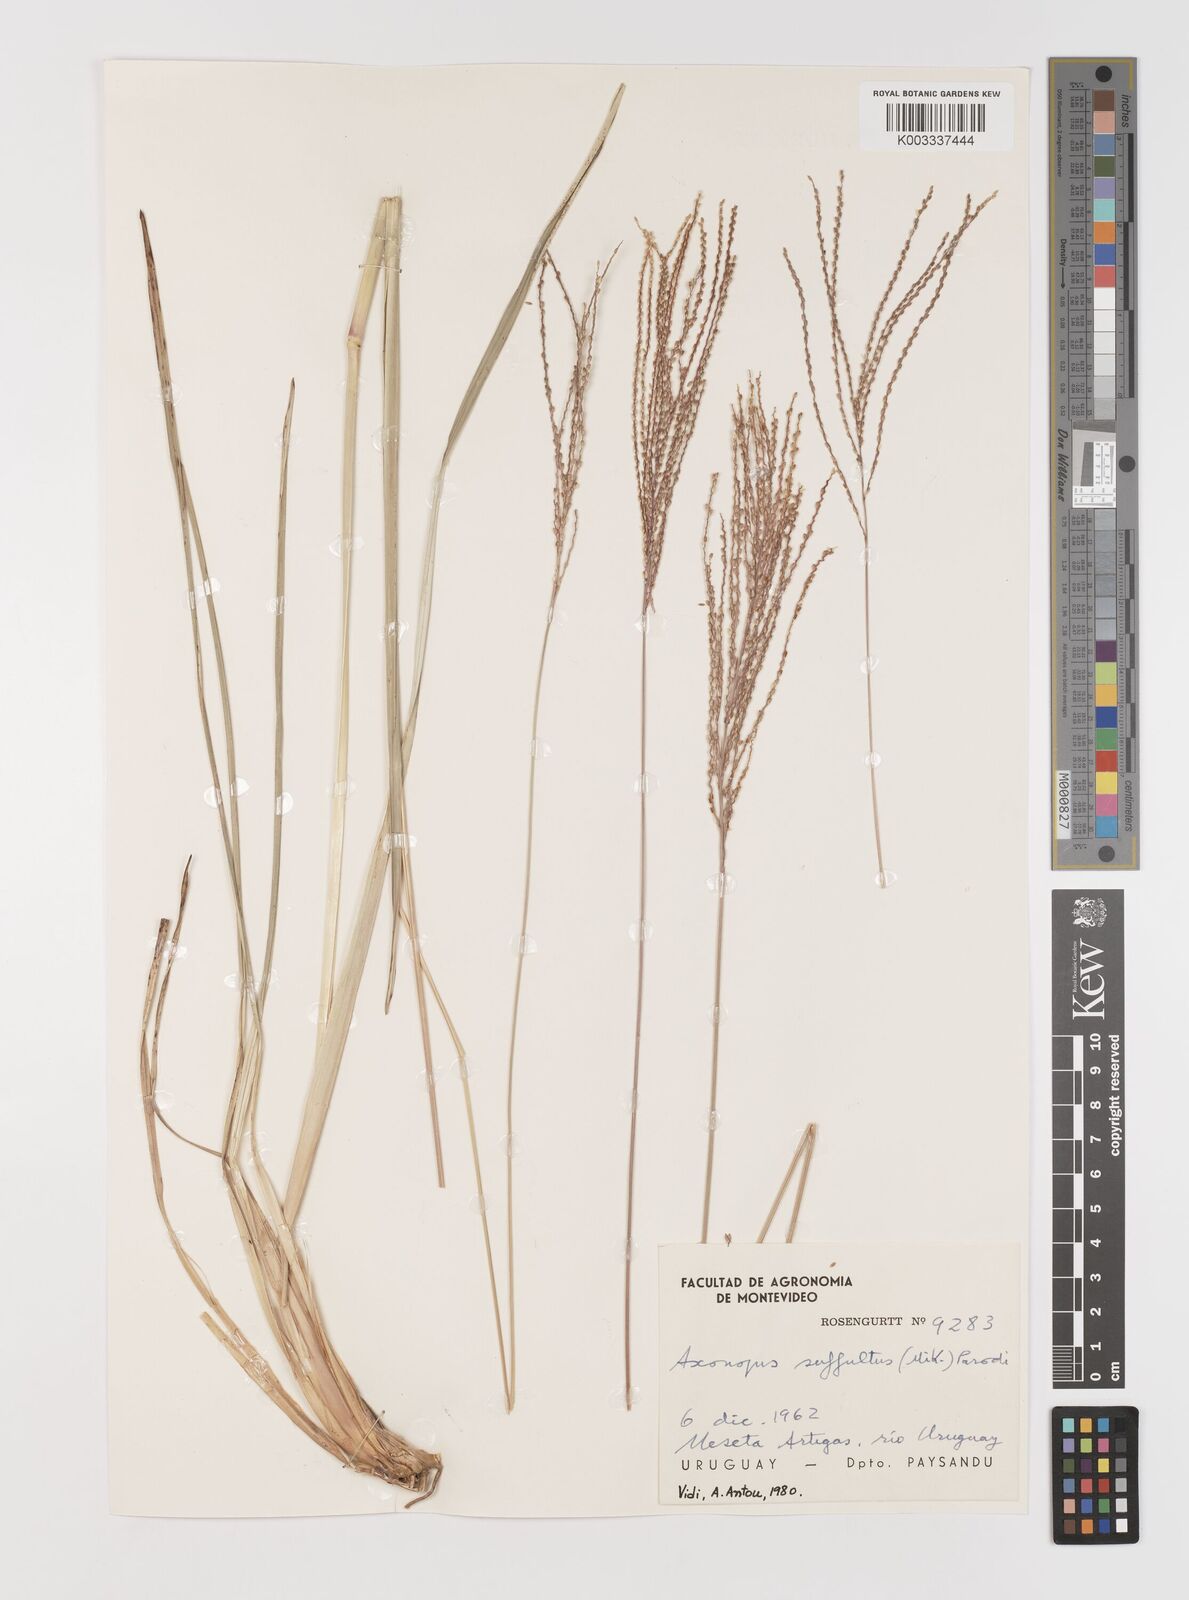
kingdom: Plantae
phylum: Tracheophyta
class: Liliopsida
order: Poales
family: Poaceae
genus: Axonopus
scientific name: Axonopus suffultus
